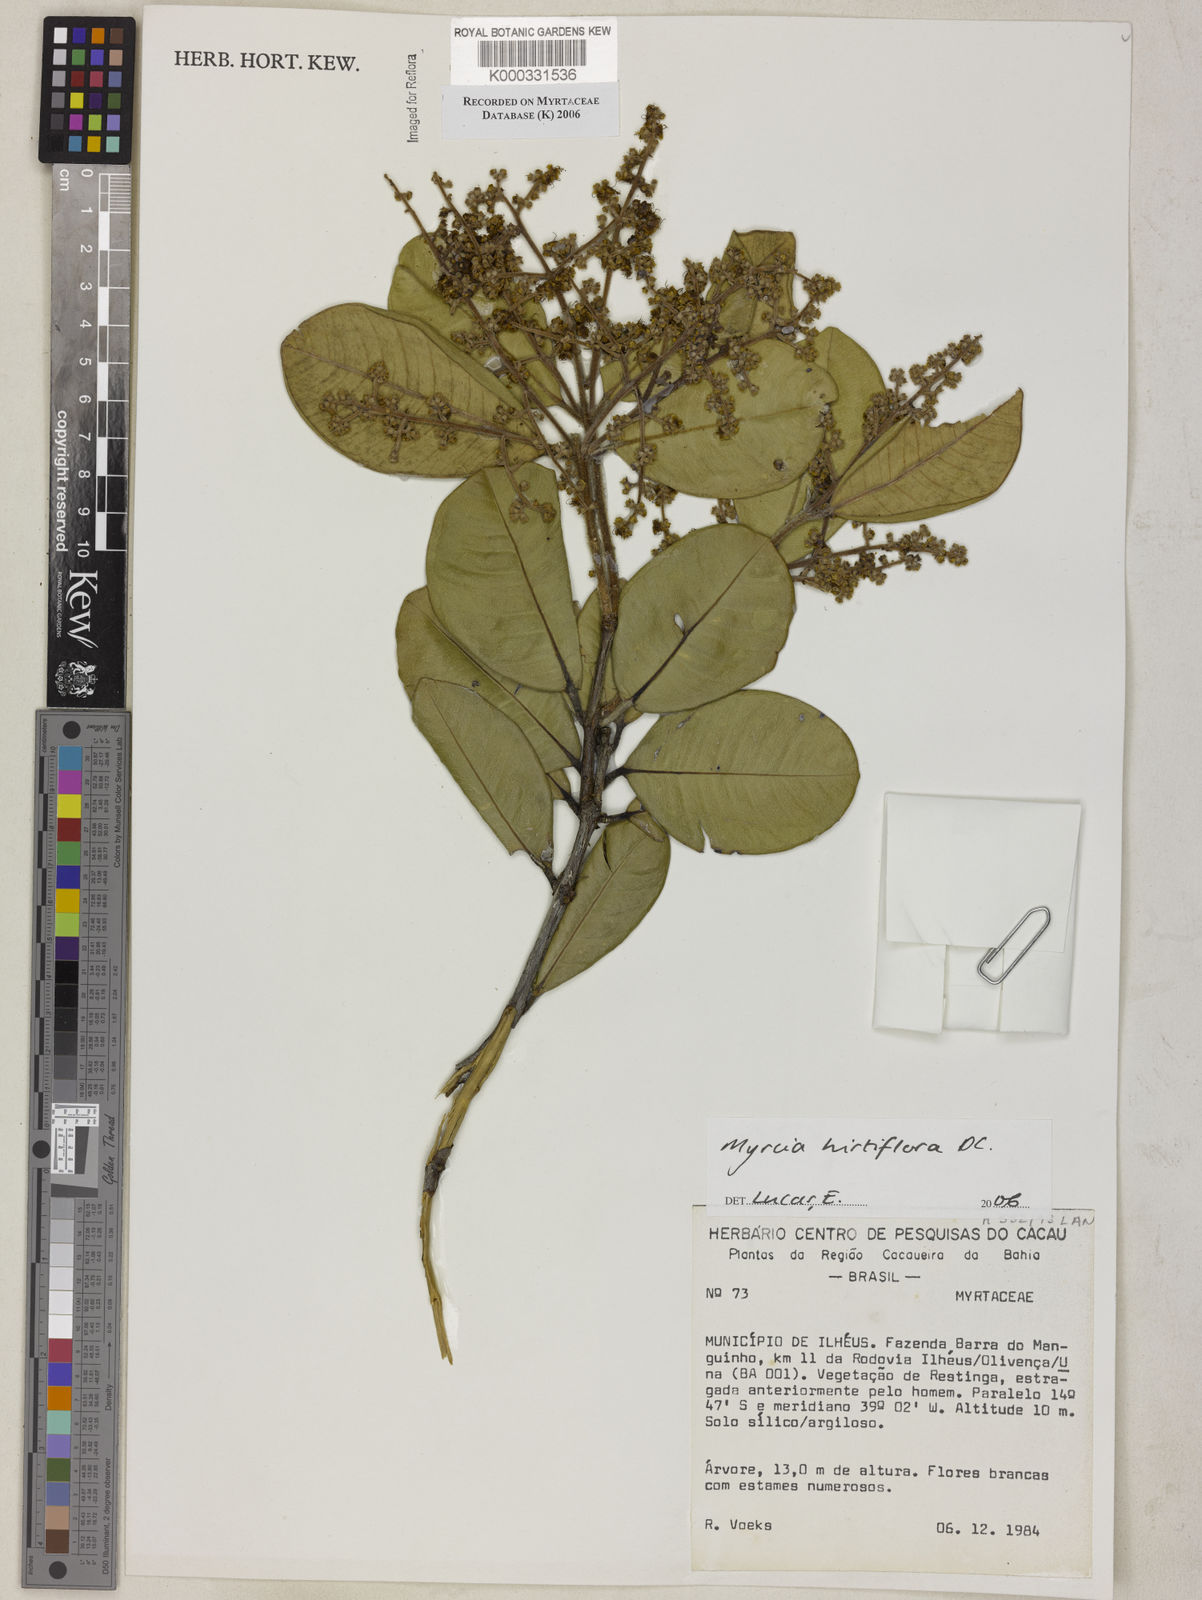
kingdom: Plantae
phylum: Tracheophyta
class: Magnoliopsida
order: Myrtales
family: Myrtaceae
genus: Myrcia
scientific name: Myrcia tomentosa
